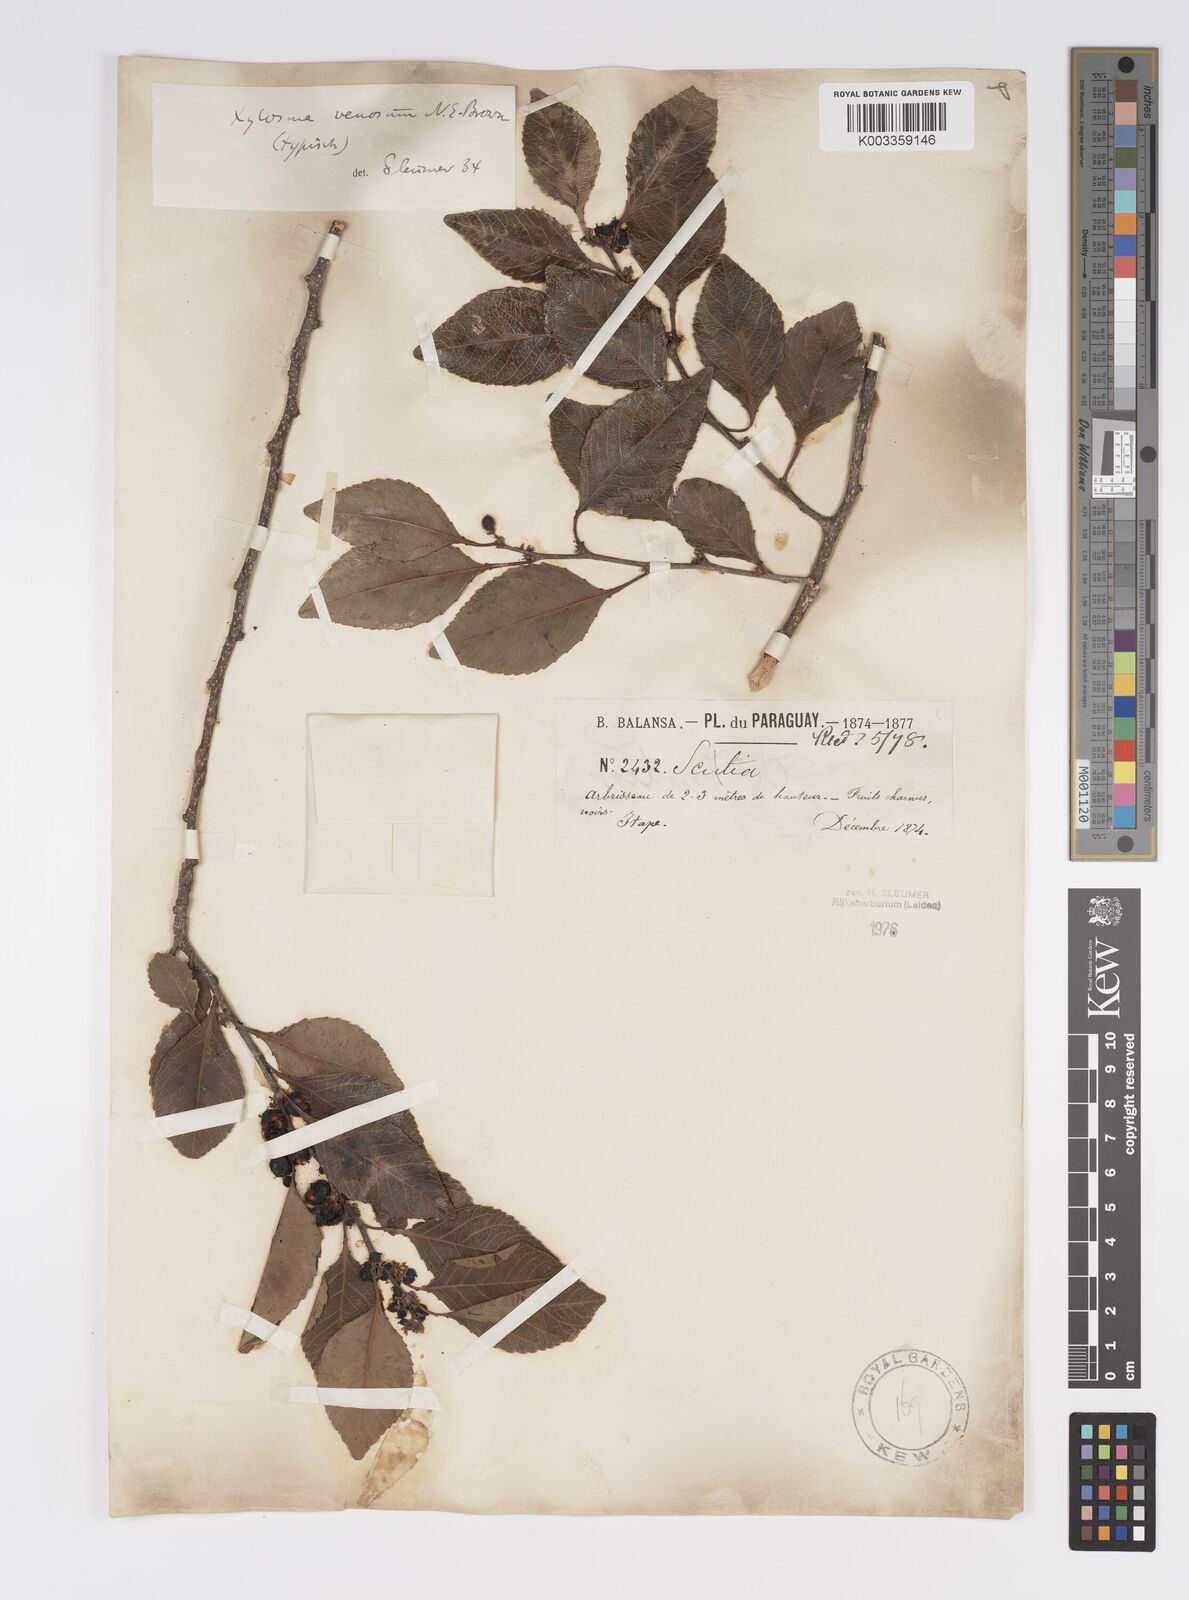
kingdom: Plantae
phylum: Tracheophyta
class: Magnoliopsida
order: Malpighiales
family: Salicaceae
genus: Xylosma
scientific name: Xylosma venosa
